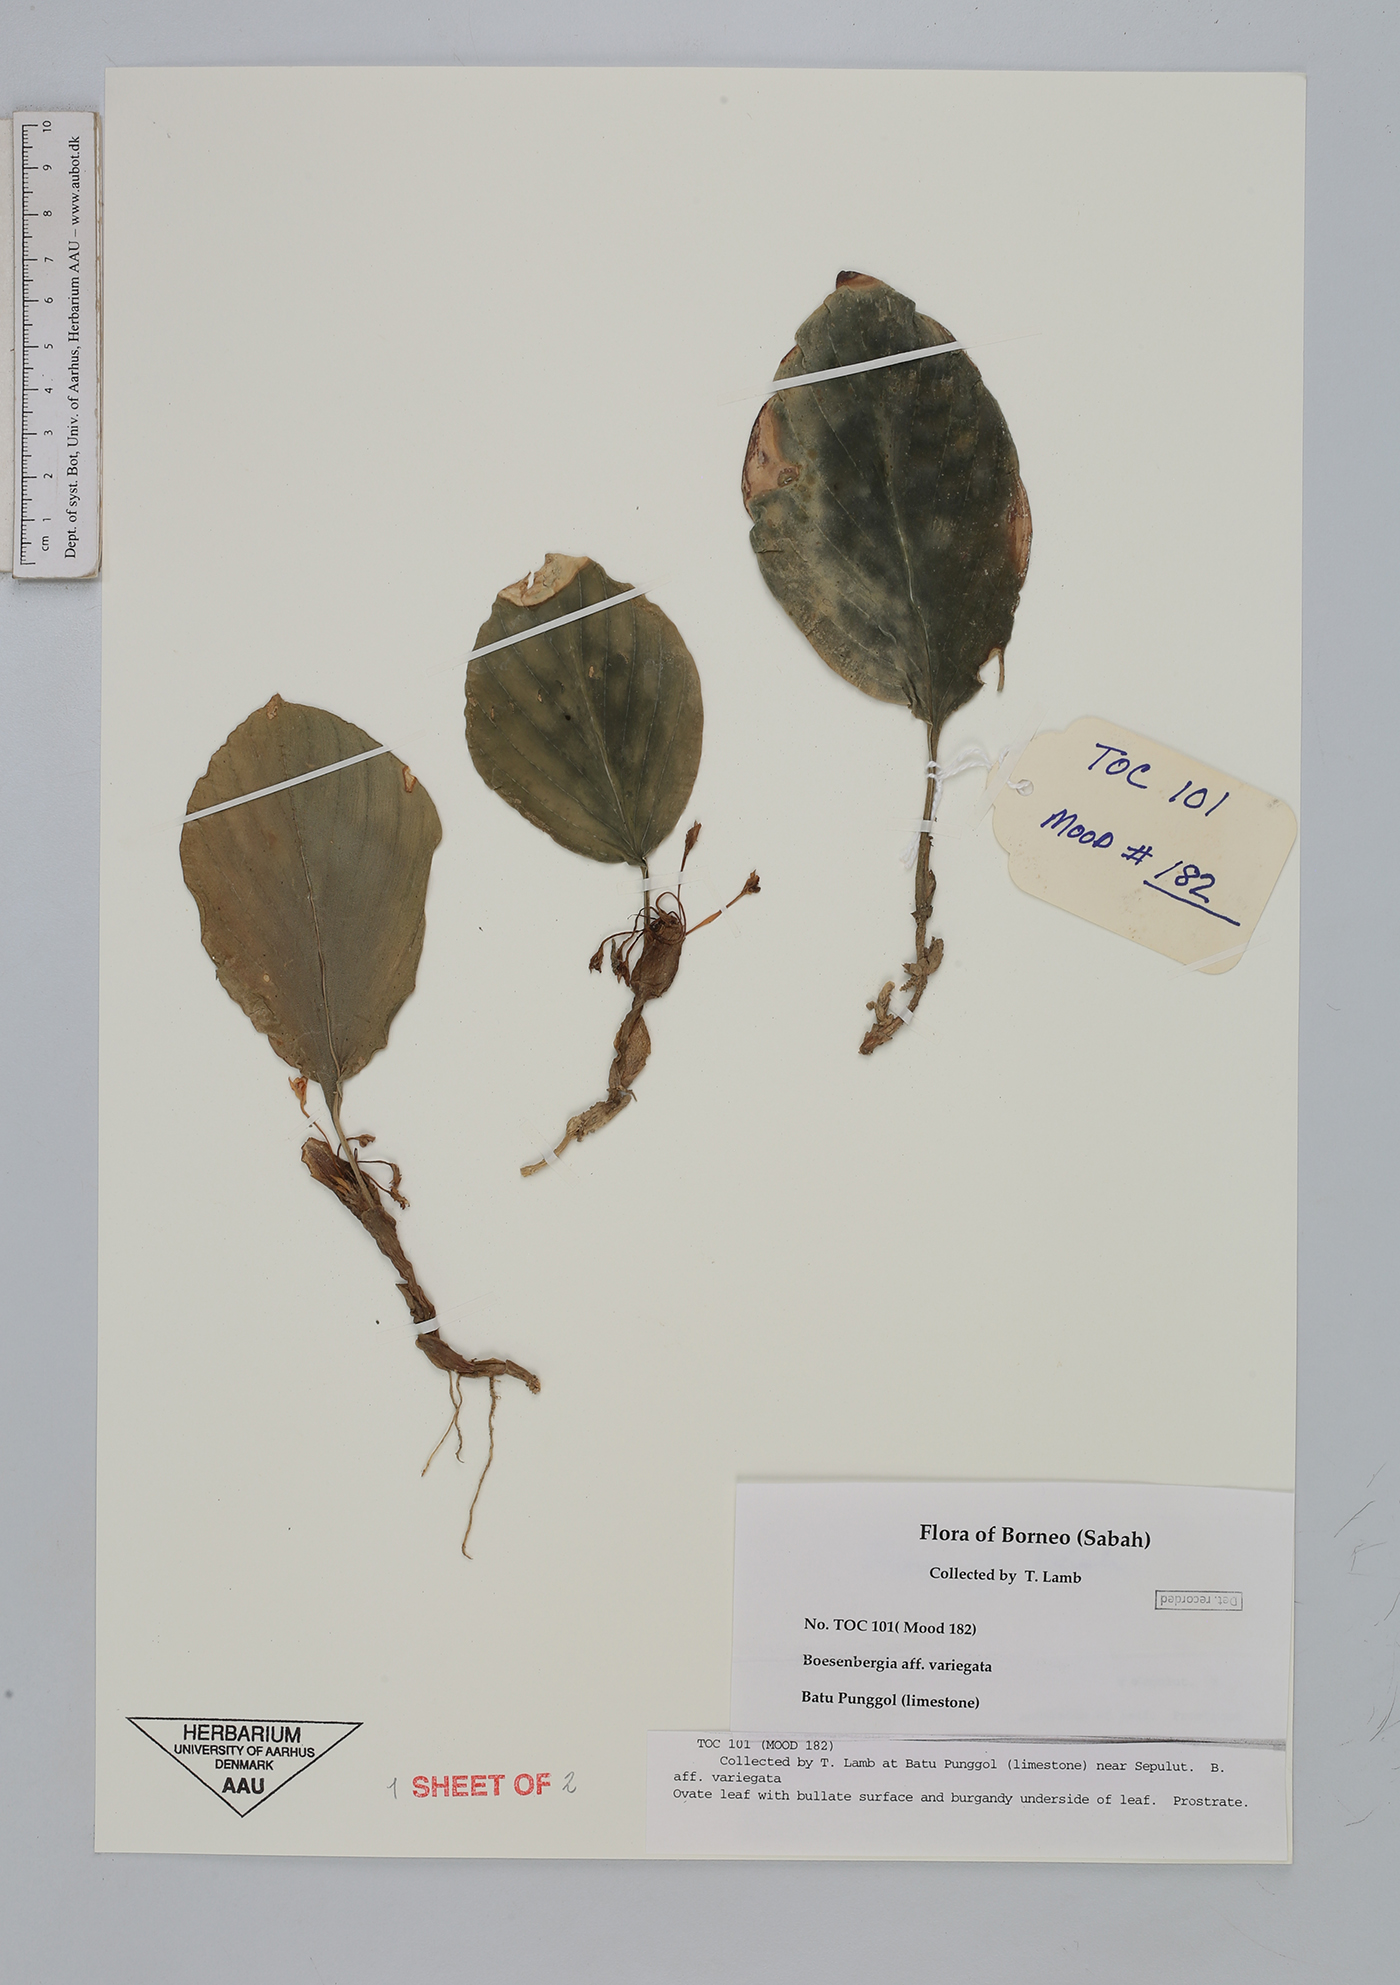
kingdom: Plantae
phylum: Tracheophyta
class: Liliopsida
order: Zingiberales
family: Zingiberaceae
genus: Boesenbergia
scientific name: Boesenbergia
